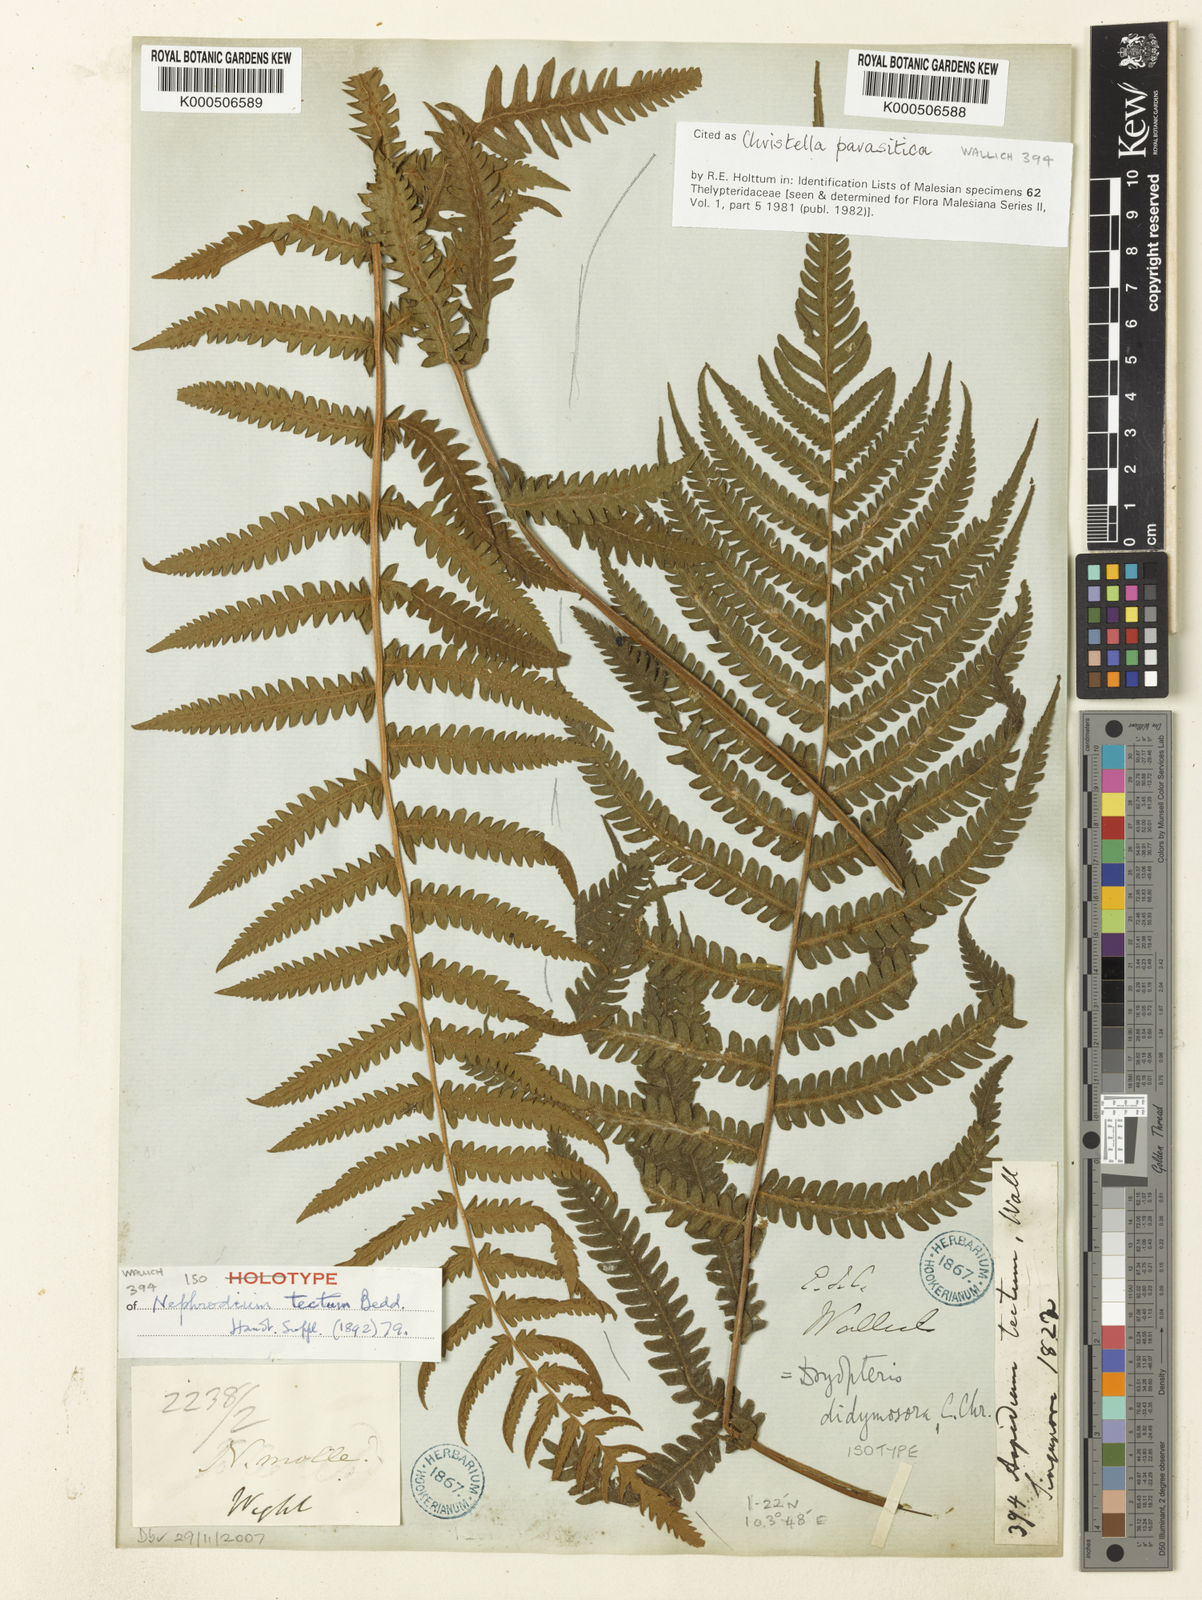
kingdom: Plantae
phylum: Tracheophyta
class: Polypodiopsida
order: Polypodiales
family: Thelypteridaceae
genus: Christella
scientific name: Christella parasitica
